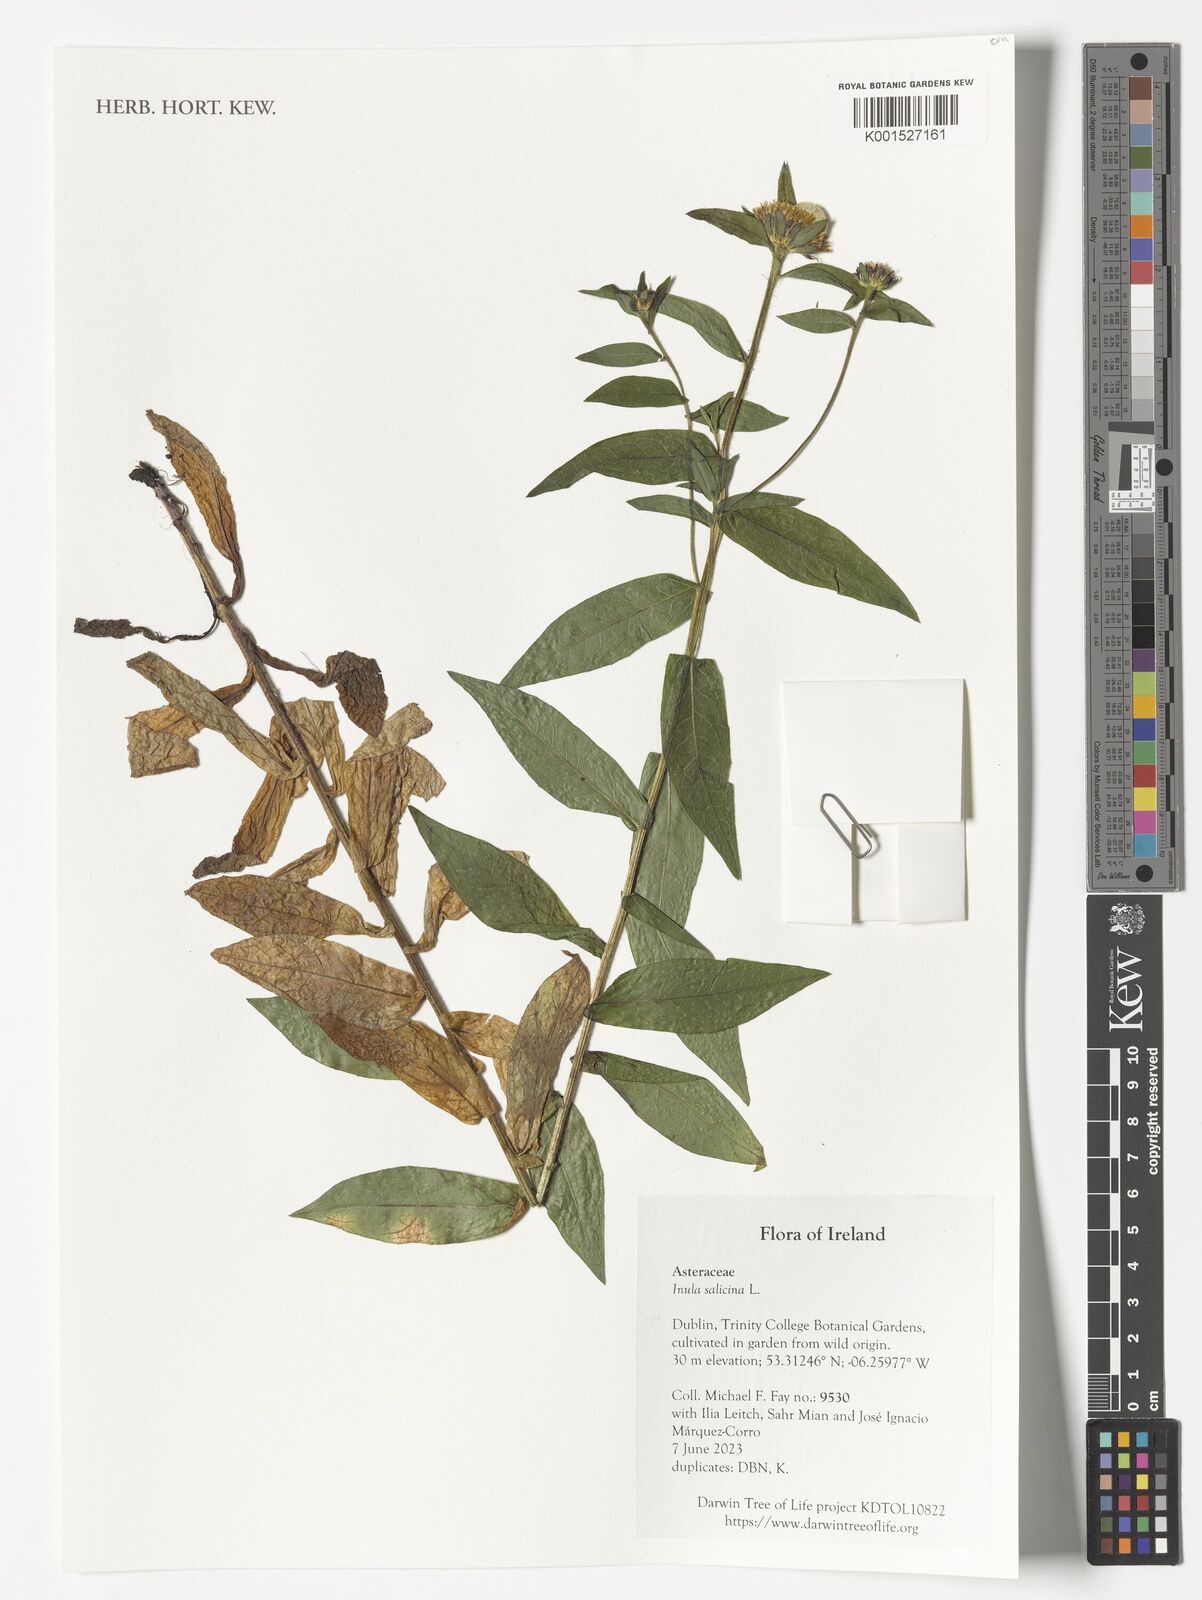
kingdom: Plantae
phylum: Tracheophyta
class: Magnoliopsida
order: Asterales
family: Asteraceae
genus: Pentanema
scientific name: Pentanema salicinum
